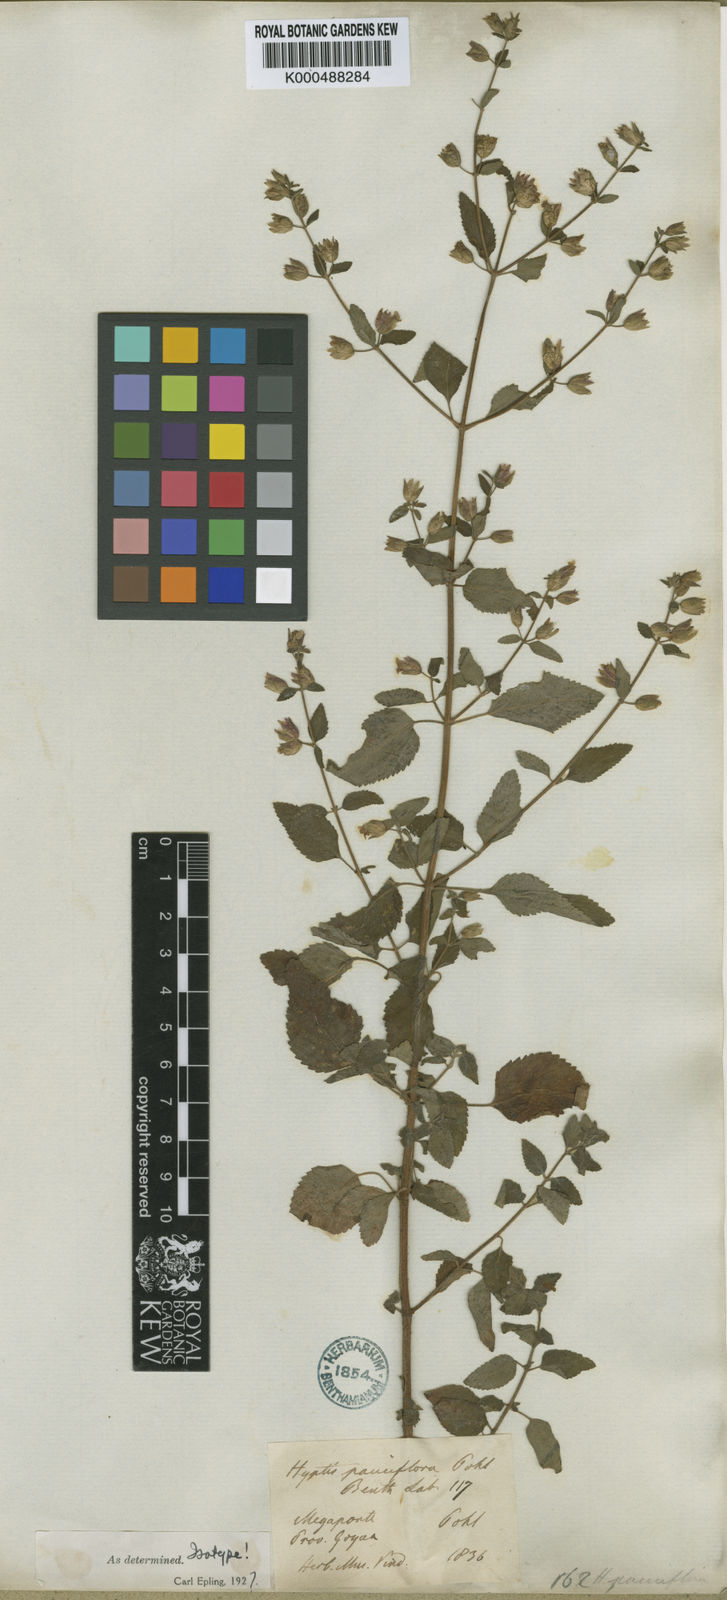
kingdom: Plantae
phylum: Tracheophyta
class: Magnoliopsida
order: Lamiales
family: Lamiaceae
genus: Oocephalus
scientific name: Oocephalus oppositiflorus
